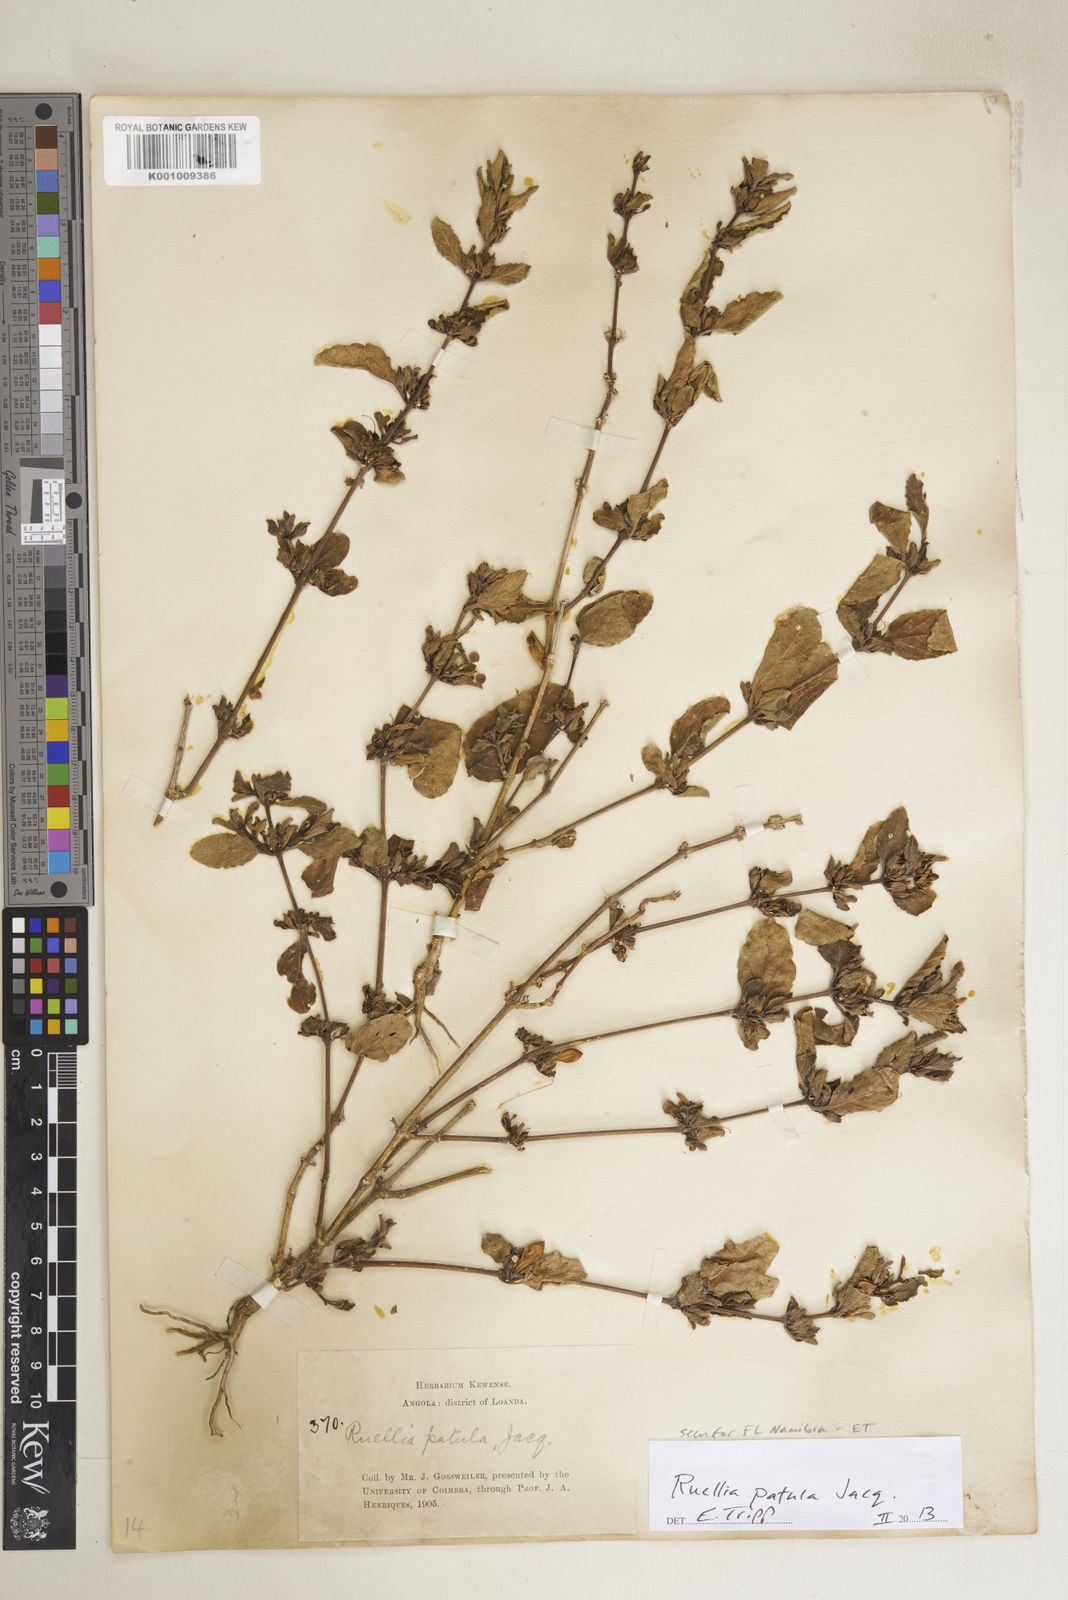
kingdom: Plantae
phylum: Tracheophyta
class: Magnoliopsida
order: Lamiales
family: Acanthaceae
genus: Ruellia
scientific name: Ruellia patula
